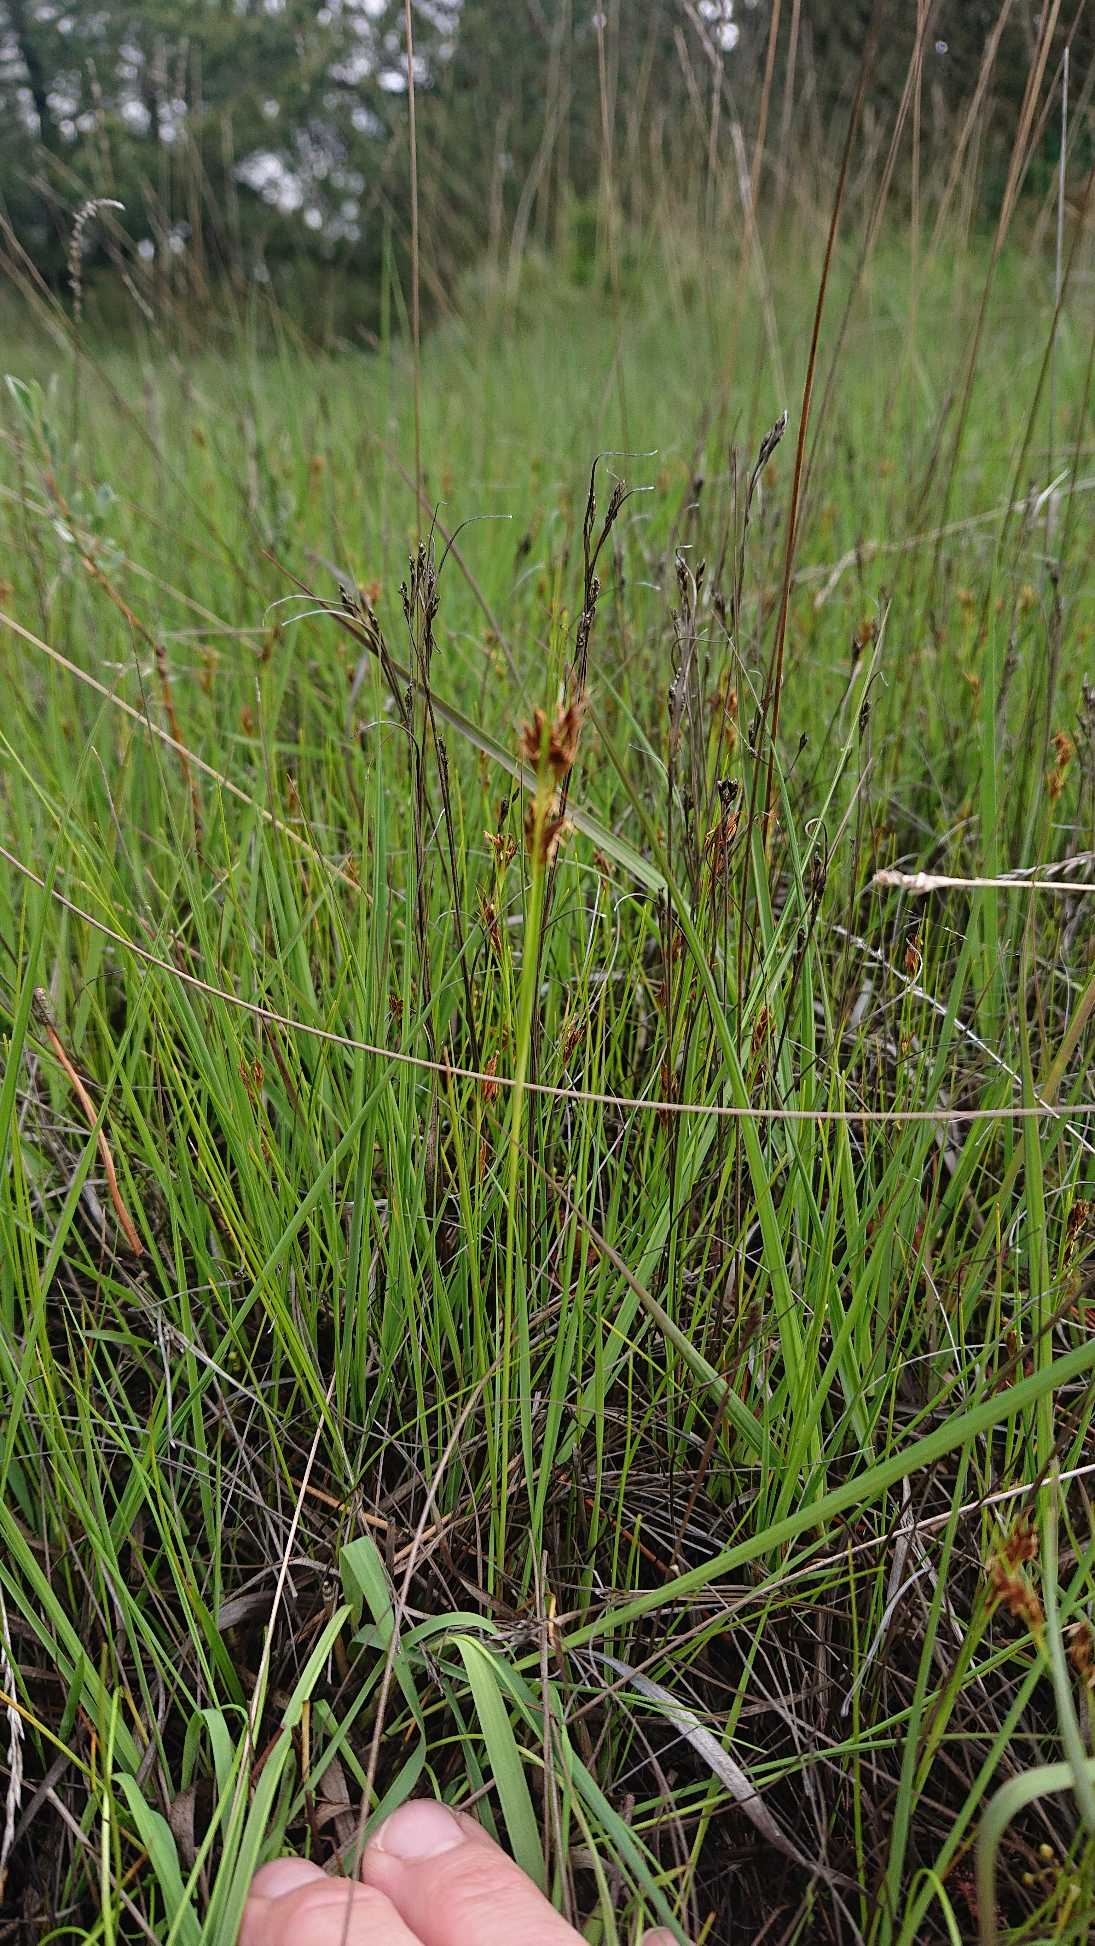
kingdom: Plantae
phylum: Tracheophyta
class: Liliopsida
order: Poales
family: Cyperaceae
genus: Rhynchospora
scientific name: Rhynchospora fusca
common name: Brun næbfrø
